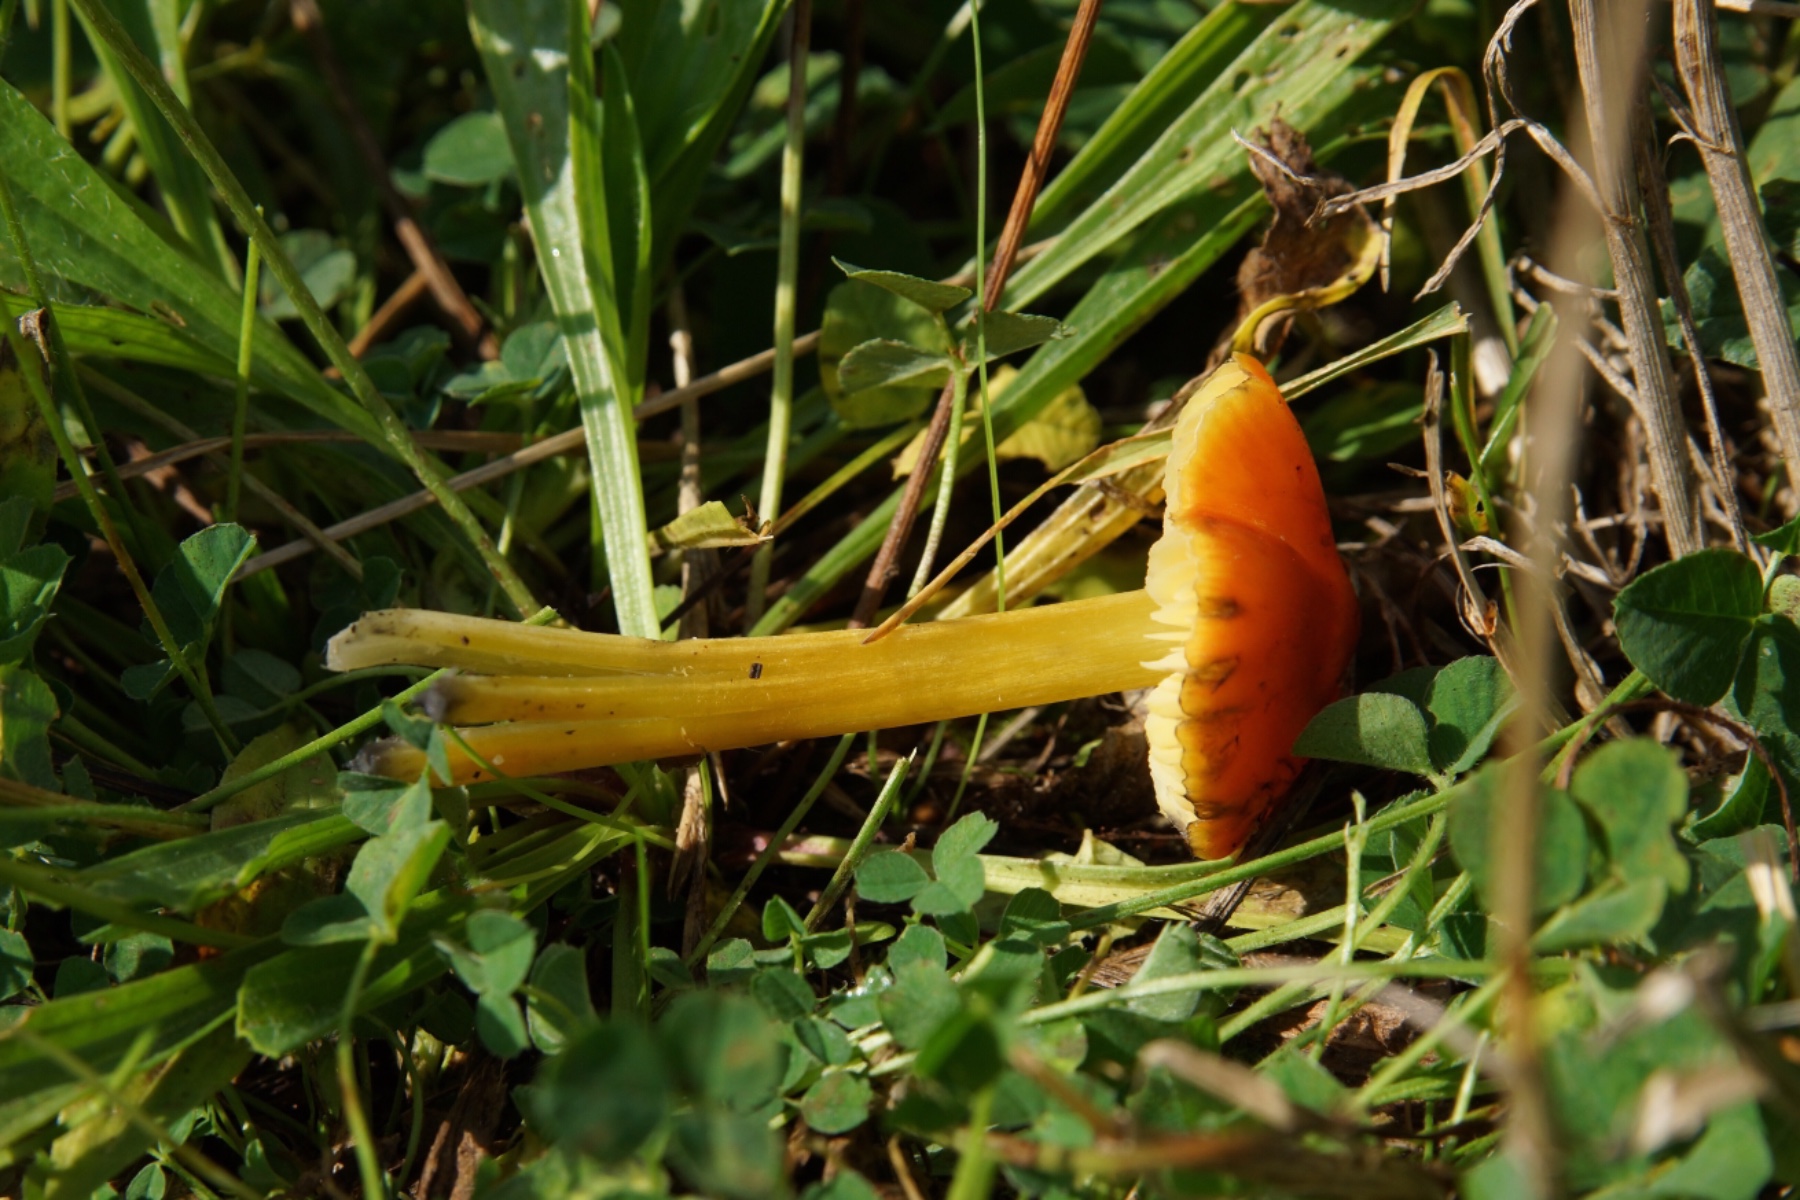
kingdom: Fungi
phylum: Basidiomycota
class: Agaricomycetes
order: Agaricales
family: Hygrophoraceae
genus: Hygrocybe
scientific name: Hygrocybe conica
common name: kegle-vokshat
